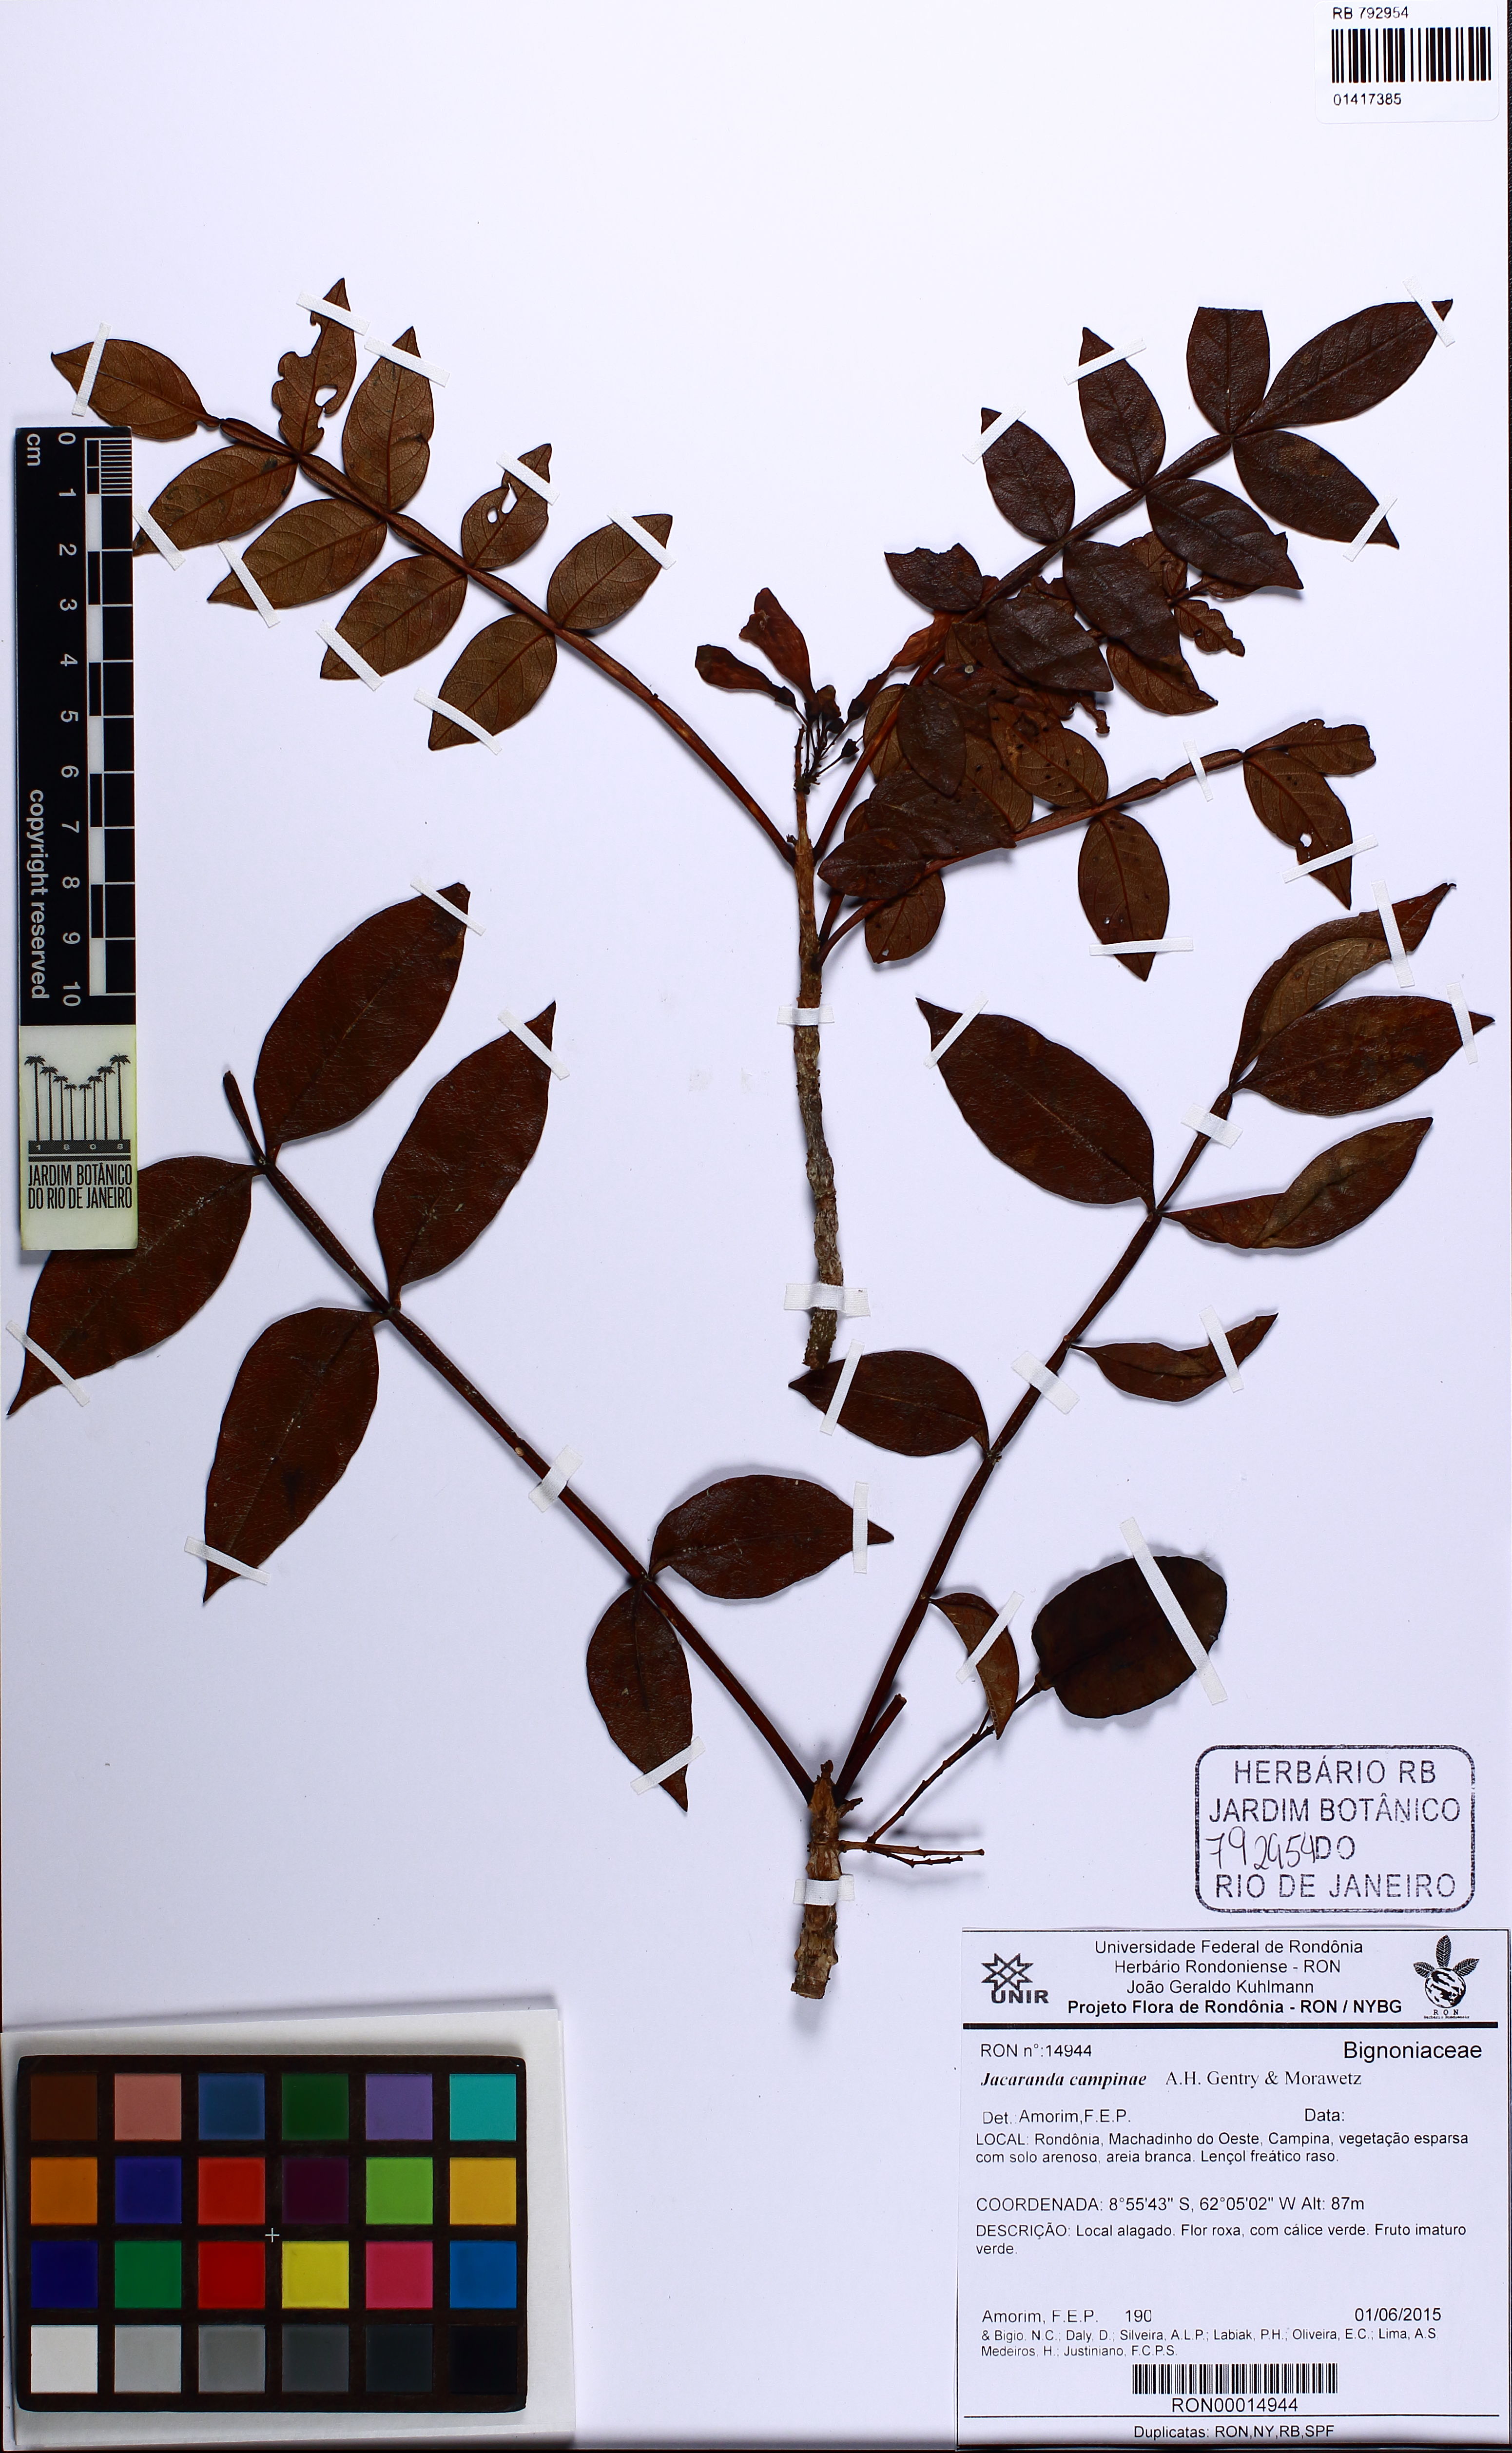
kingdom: Plantae
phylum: Tracheophyta
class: Magnoliopsida
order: Lamiales
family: Bignoniaceae
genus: Jacaranda
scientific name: Jacaranda campinae
